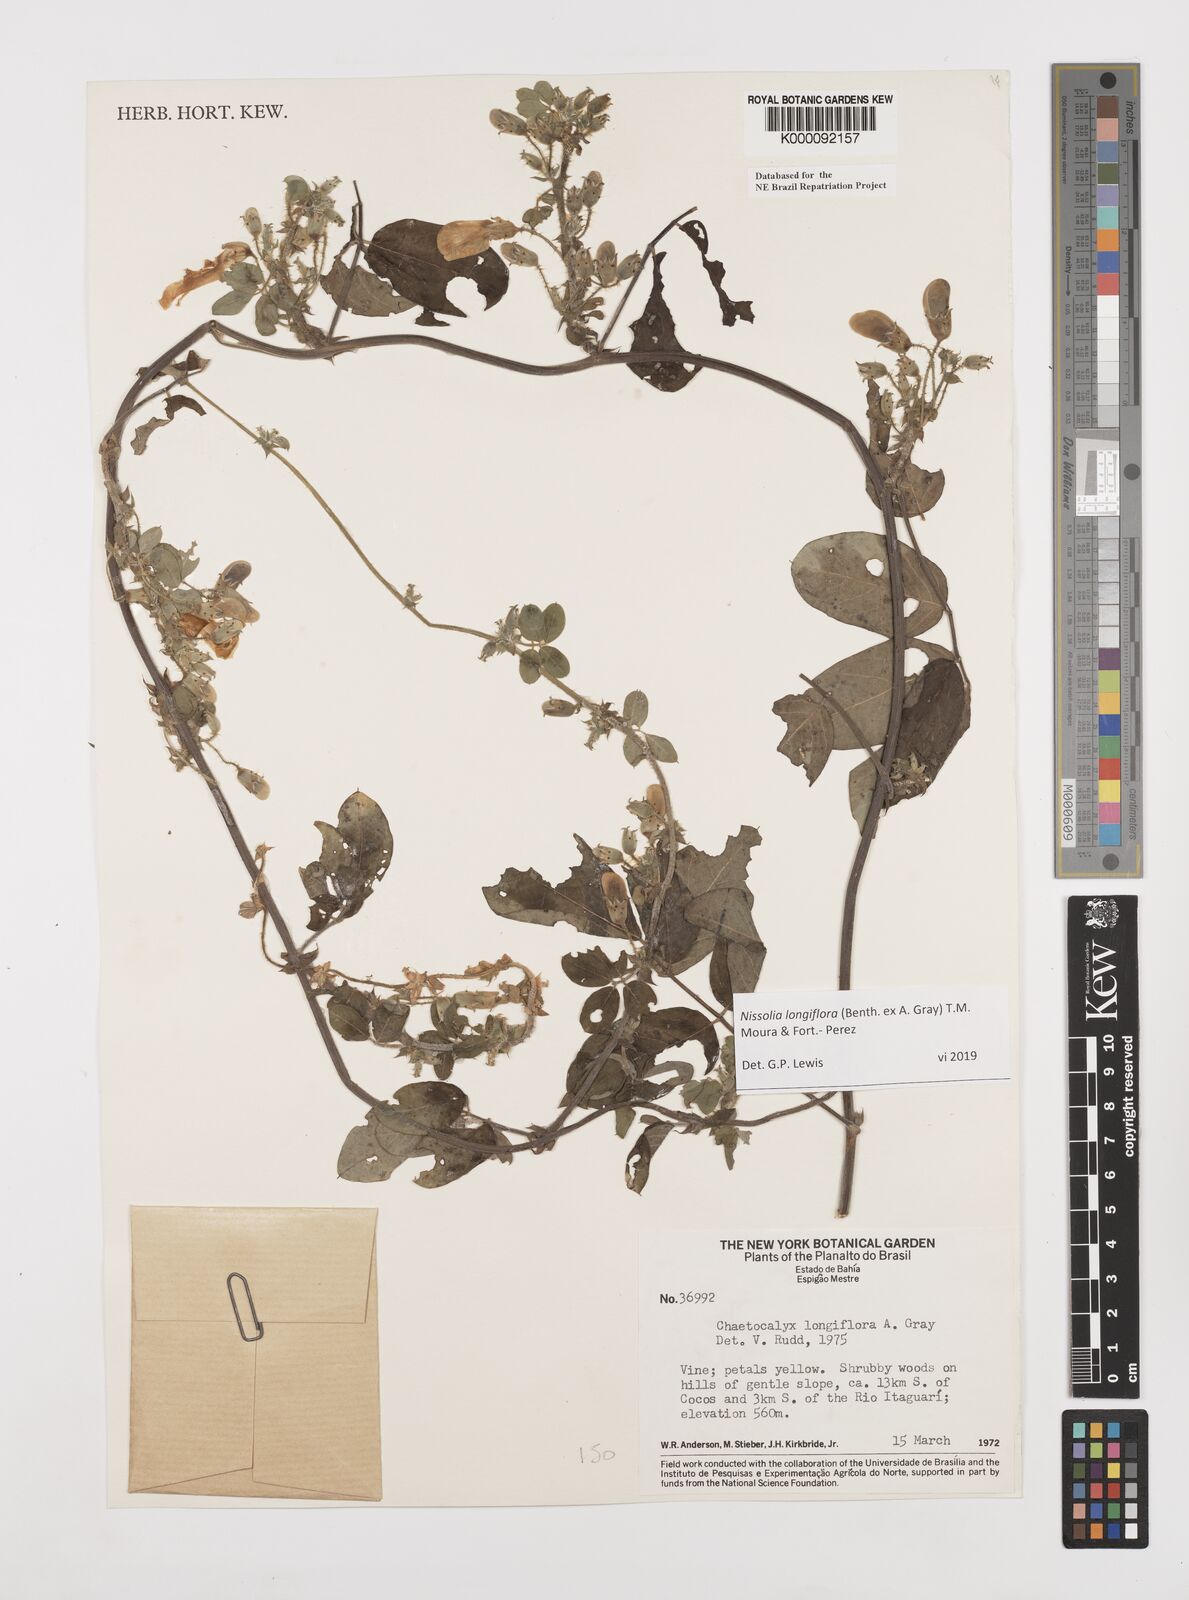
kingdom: Plantae
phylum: Tracheophyta
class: Magnoliopsida
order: Fabales
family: Fabaceae
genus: Nissolia
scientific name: Nissolia longiflora
